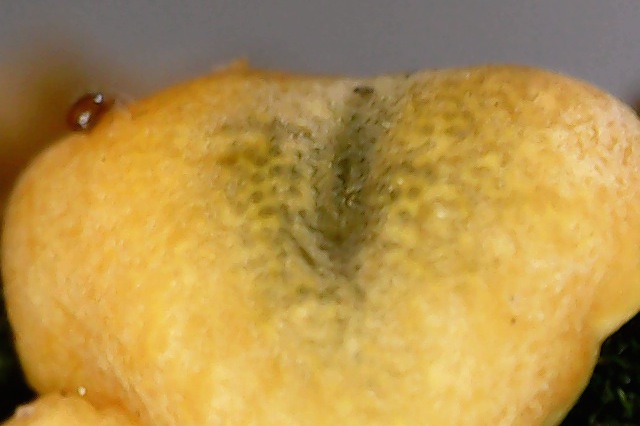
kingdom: Fungi
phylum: Ascomycota
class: Sordariomycetes
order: Hypocreales
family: Hypocreaceae
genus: Trichoderma
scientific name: Trichoderma aureoviride
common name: æggegul kødkerne
